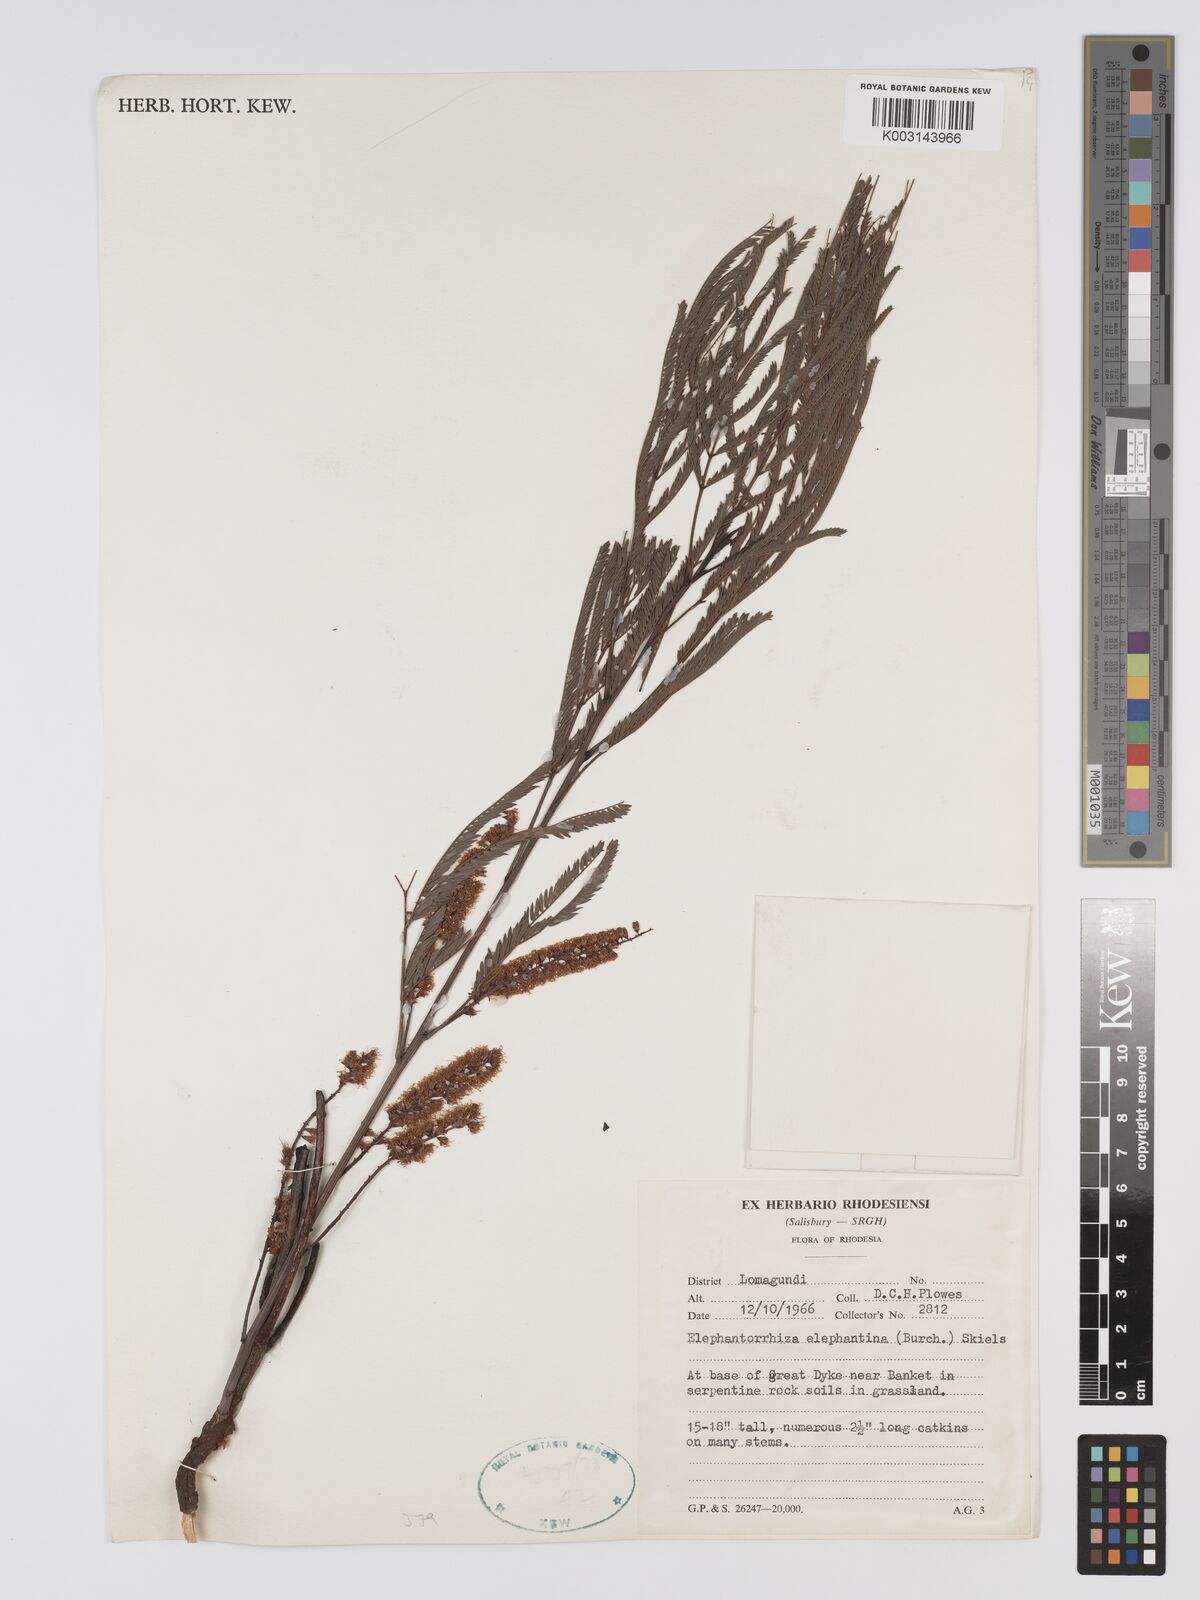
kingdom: Plantae
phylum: Tracheophyta
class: Magnoliopsida
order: Fabales
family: Fabaceae
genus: Elephantorrhiza
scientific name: Elephantorrhiza elephantina
